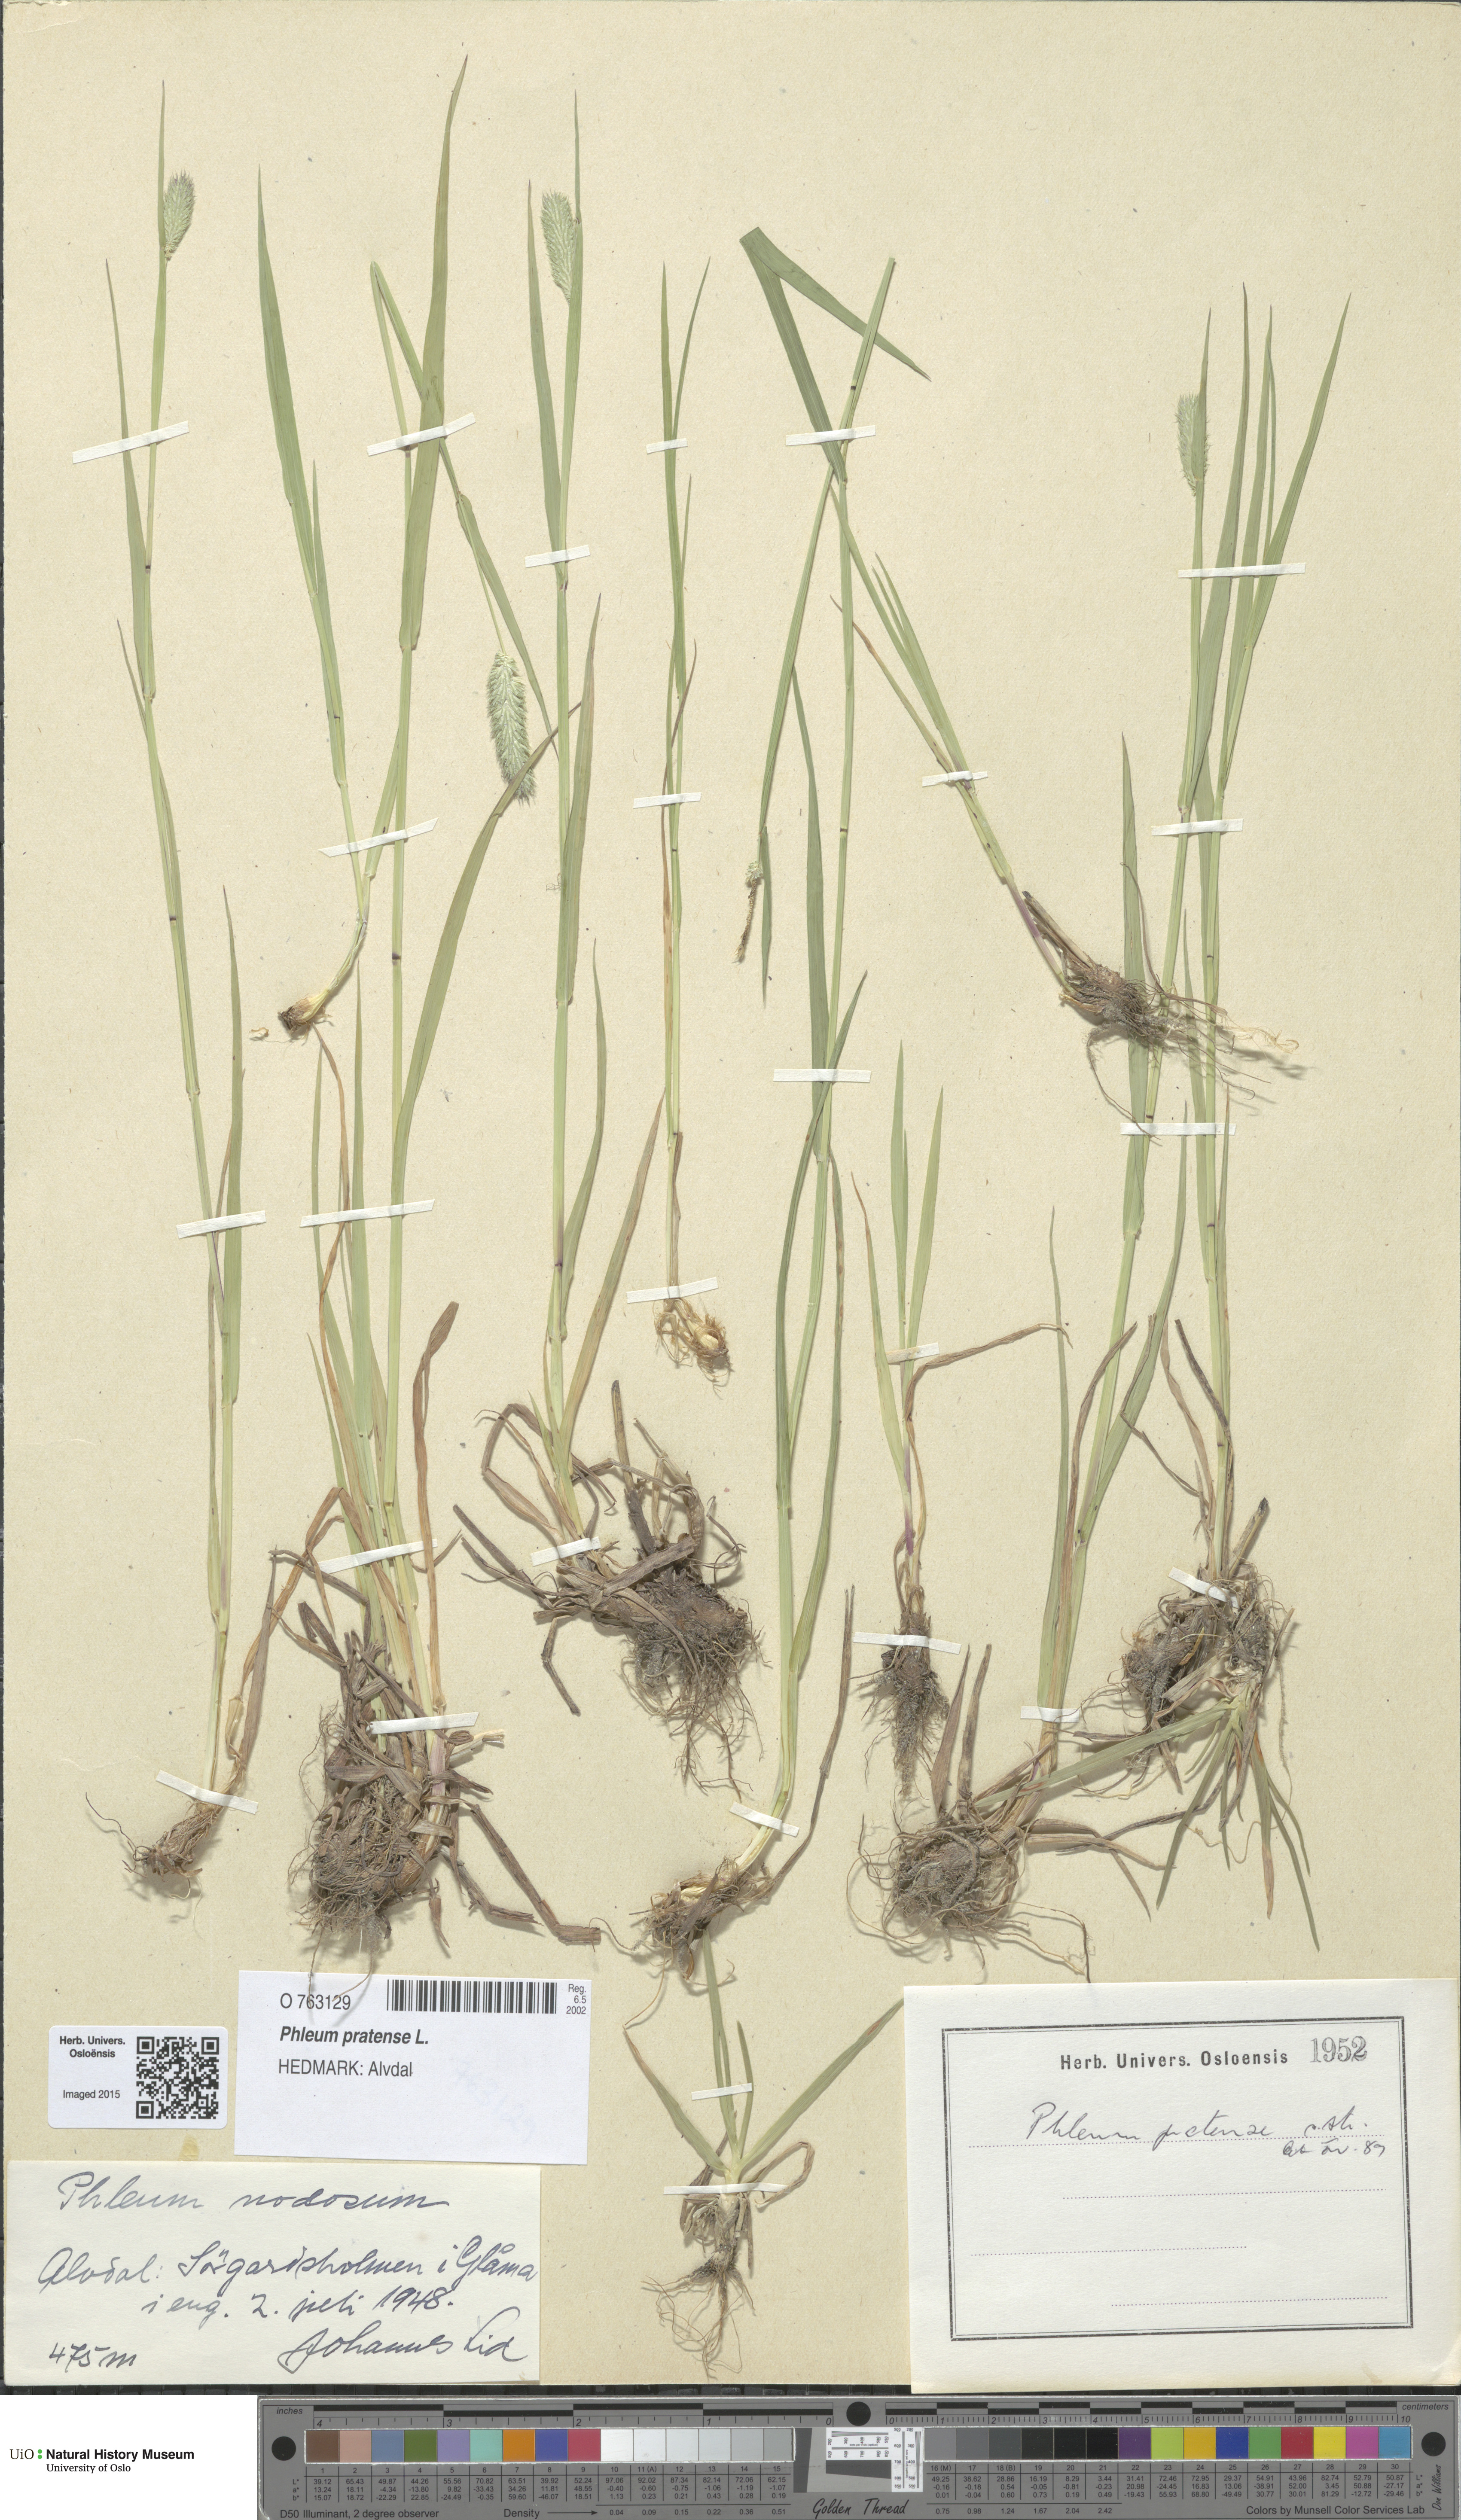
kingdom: Plantae
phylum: Tracheophyta
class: Liliopsida
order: Poales
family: Poaceae
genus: Phleum
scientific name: Phleum pratense
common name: Timothy grass
